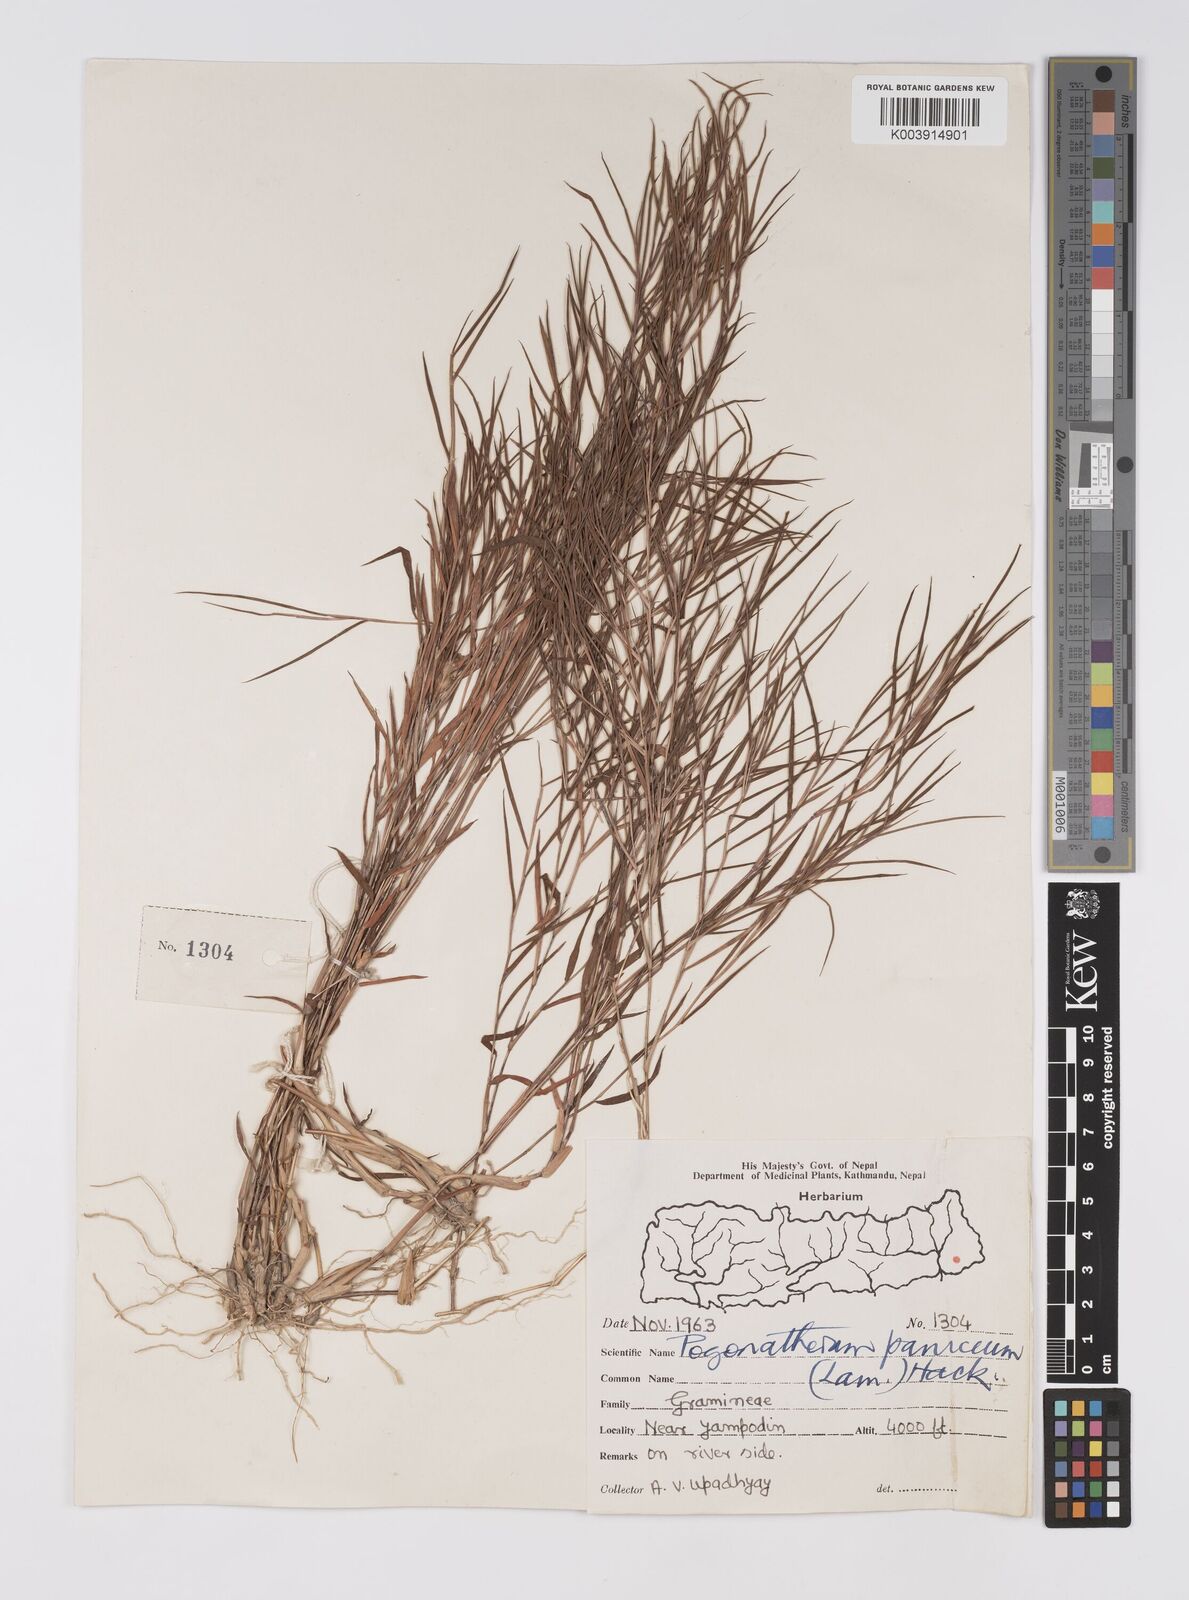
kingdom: Plantae
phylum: Tracheophyta
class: Liliopsida
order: Poales
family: Poaceae
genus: Pogonatherum
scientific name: Pogonatherum paniceum
